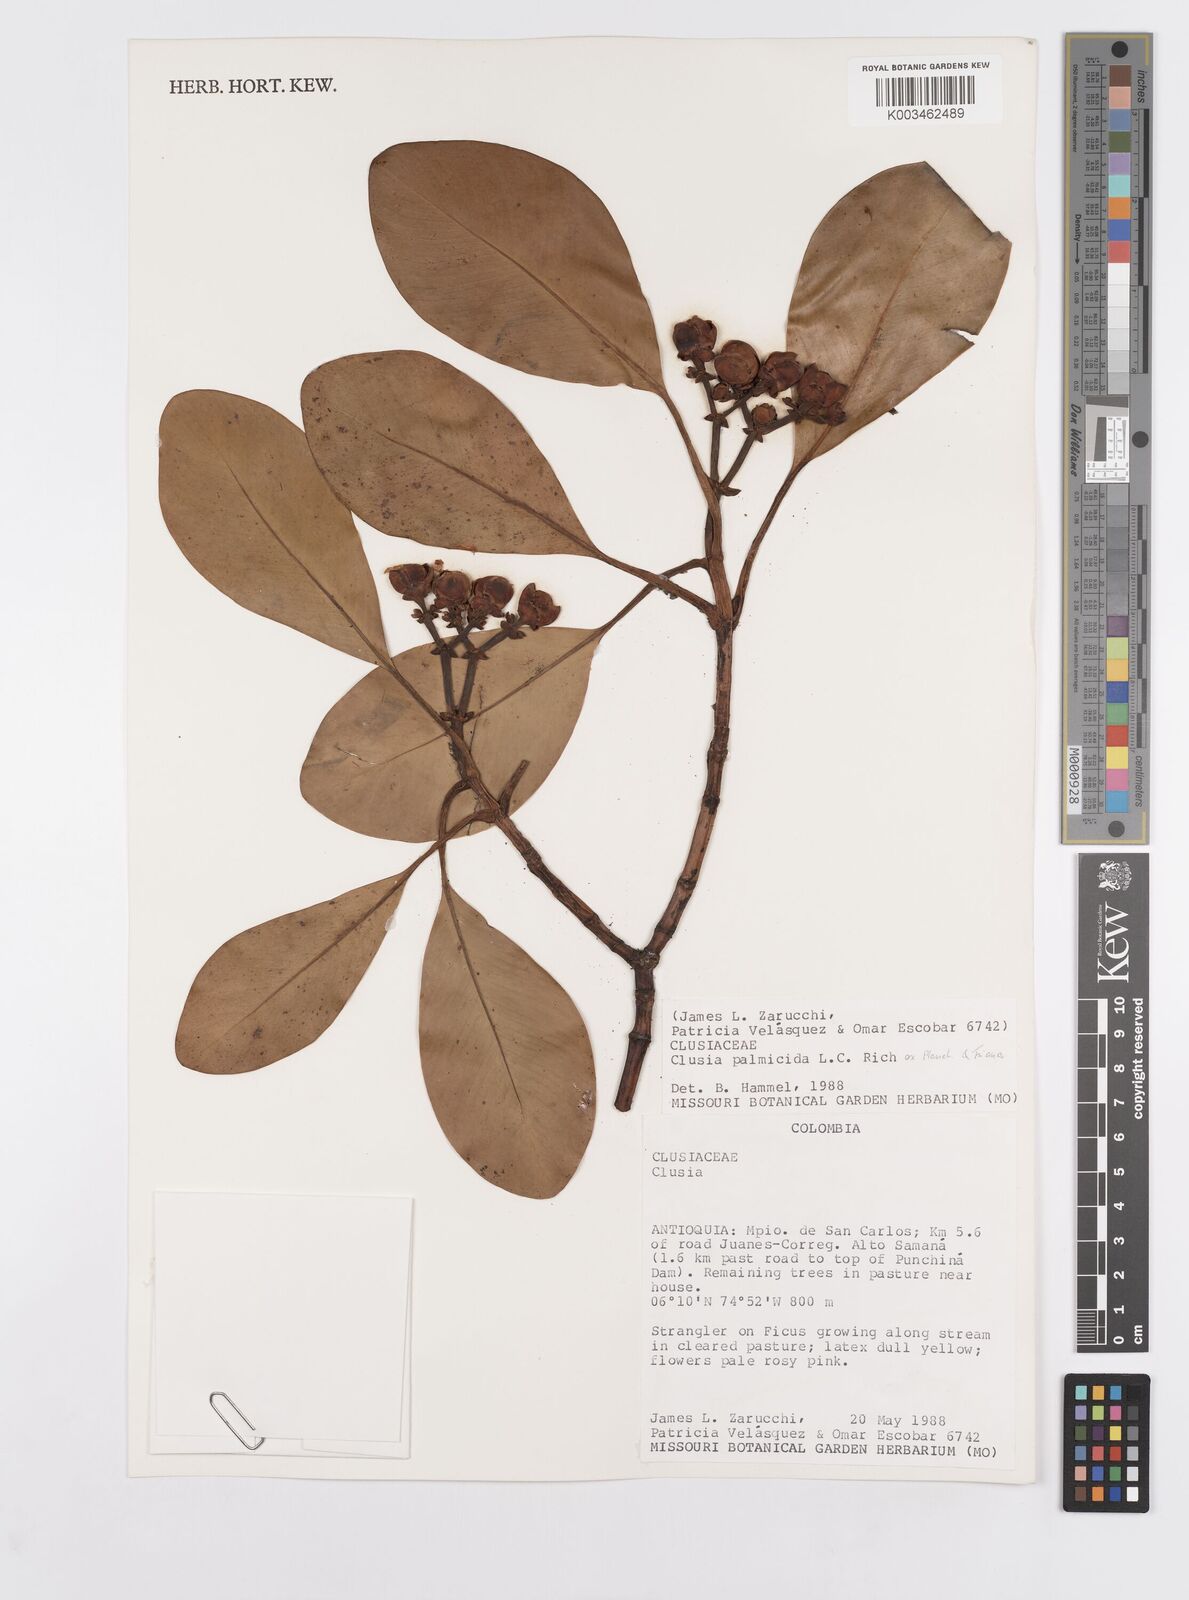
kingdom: Plantae
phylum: Tracheophyta
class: Magnoliopsida
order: Malpighiales
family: Clusiaceae
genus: Clusia
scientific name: Clusia palmicida
